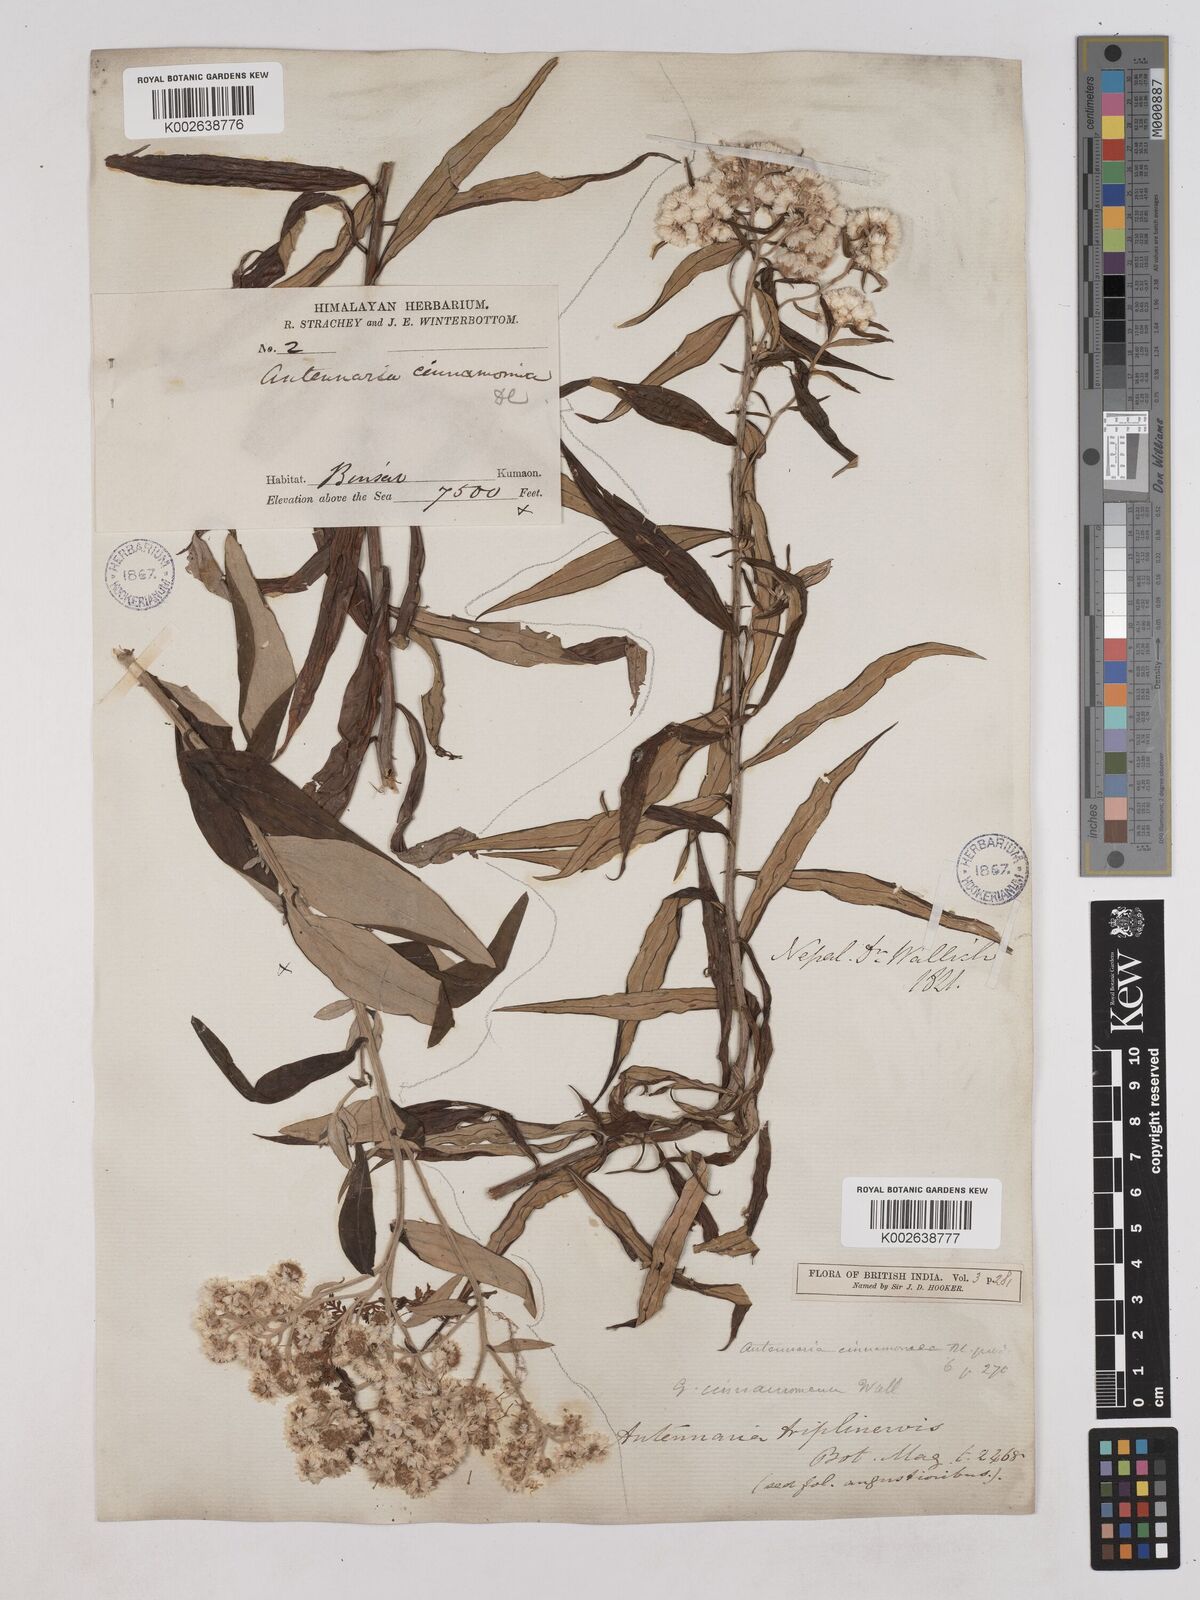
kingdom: Plantae
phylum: Tracheophyta
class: Magnoliopsida
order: Asterales
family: Asteraceae
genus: Anaphalis
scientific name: Anaphalis marcescens
